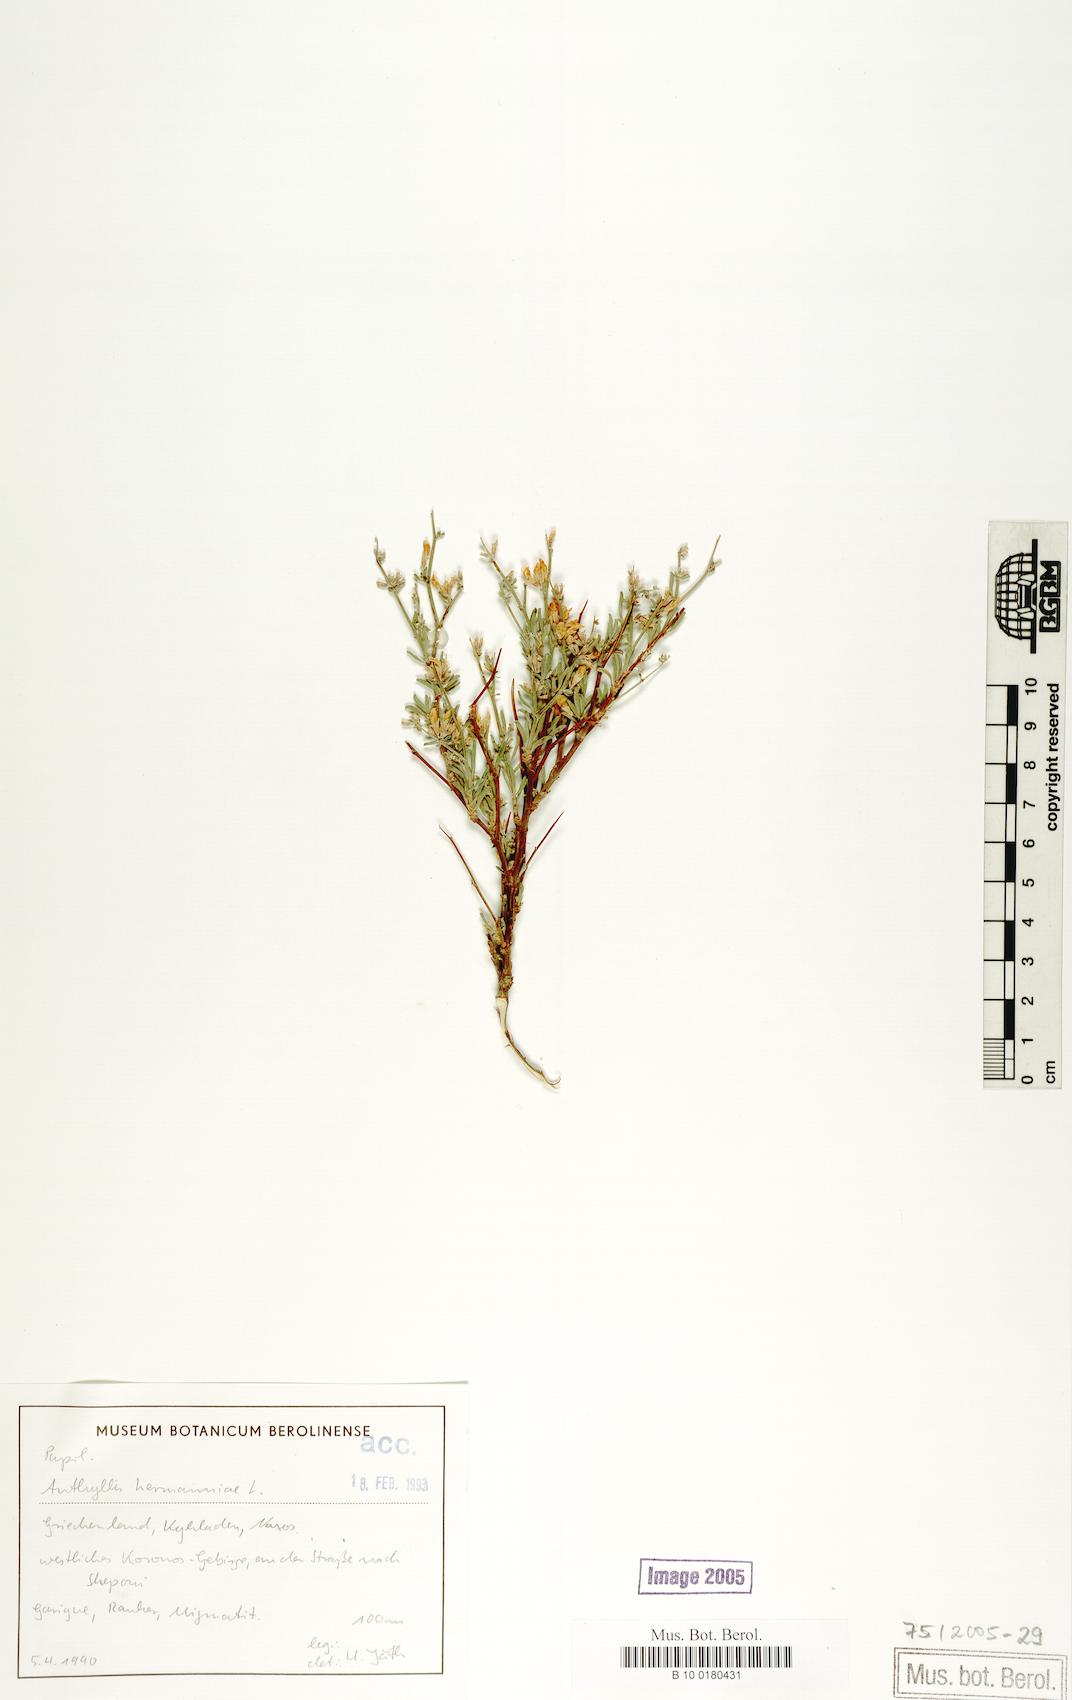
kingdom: Plantae
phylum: Tracheophyta
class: Magnoliopsida
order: Fabales
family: Fabaceae
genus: Anthyllis
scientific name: Anthyllis hermanniae
